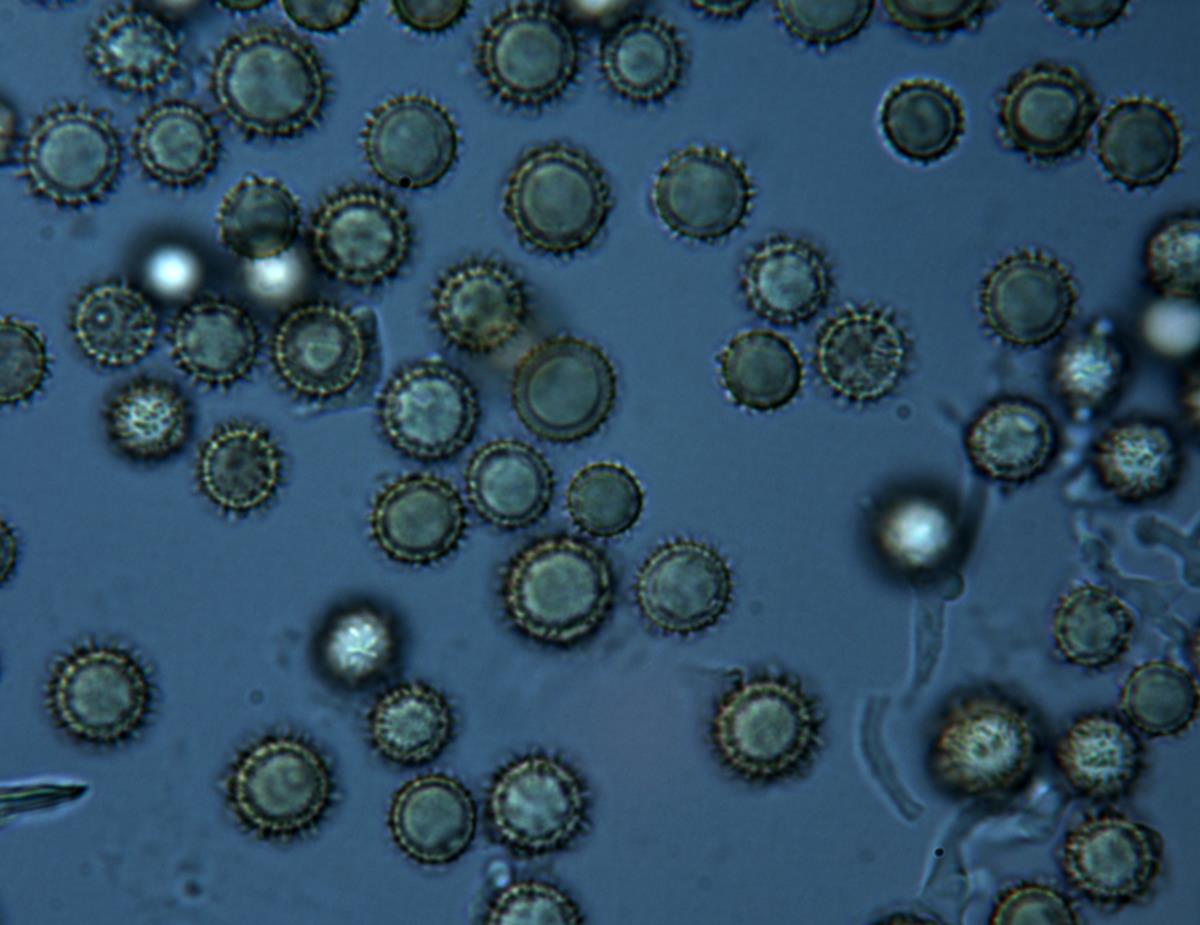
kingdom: Fungi
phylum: Basidiomycota
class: Agaricomycetes
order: Boletales
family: Sclerodermataceae
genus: Pisolithus
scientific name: Pisolithus
